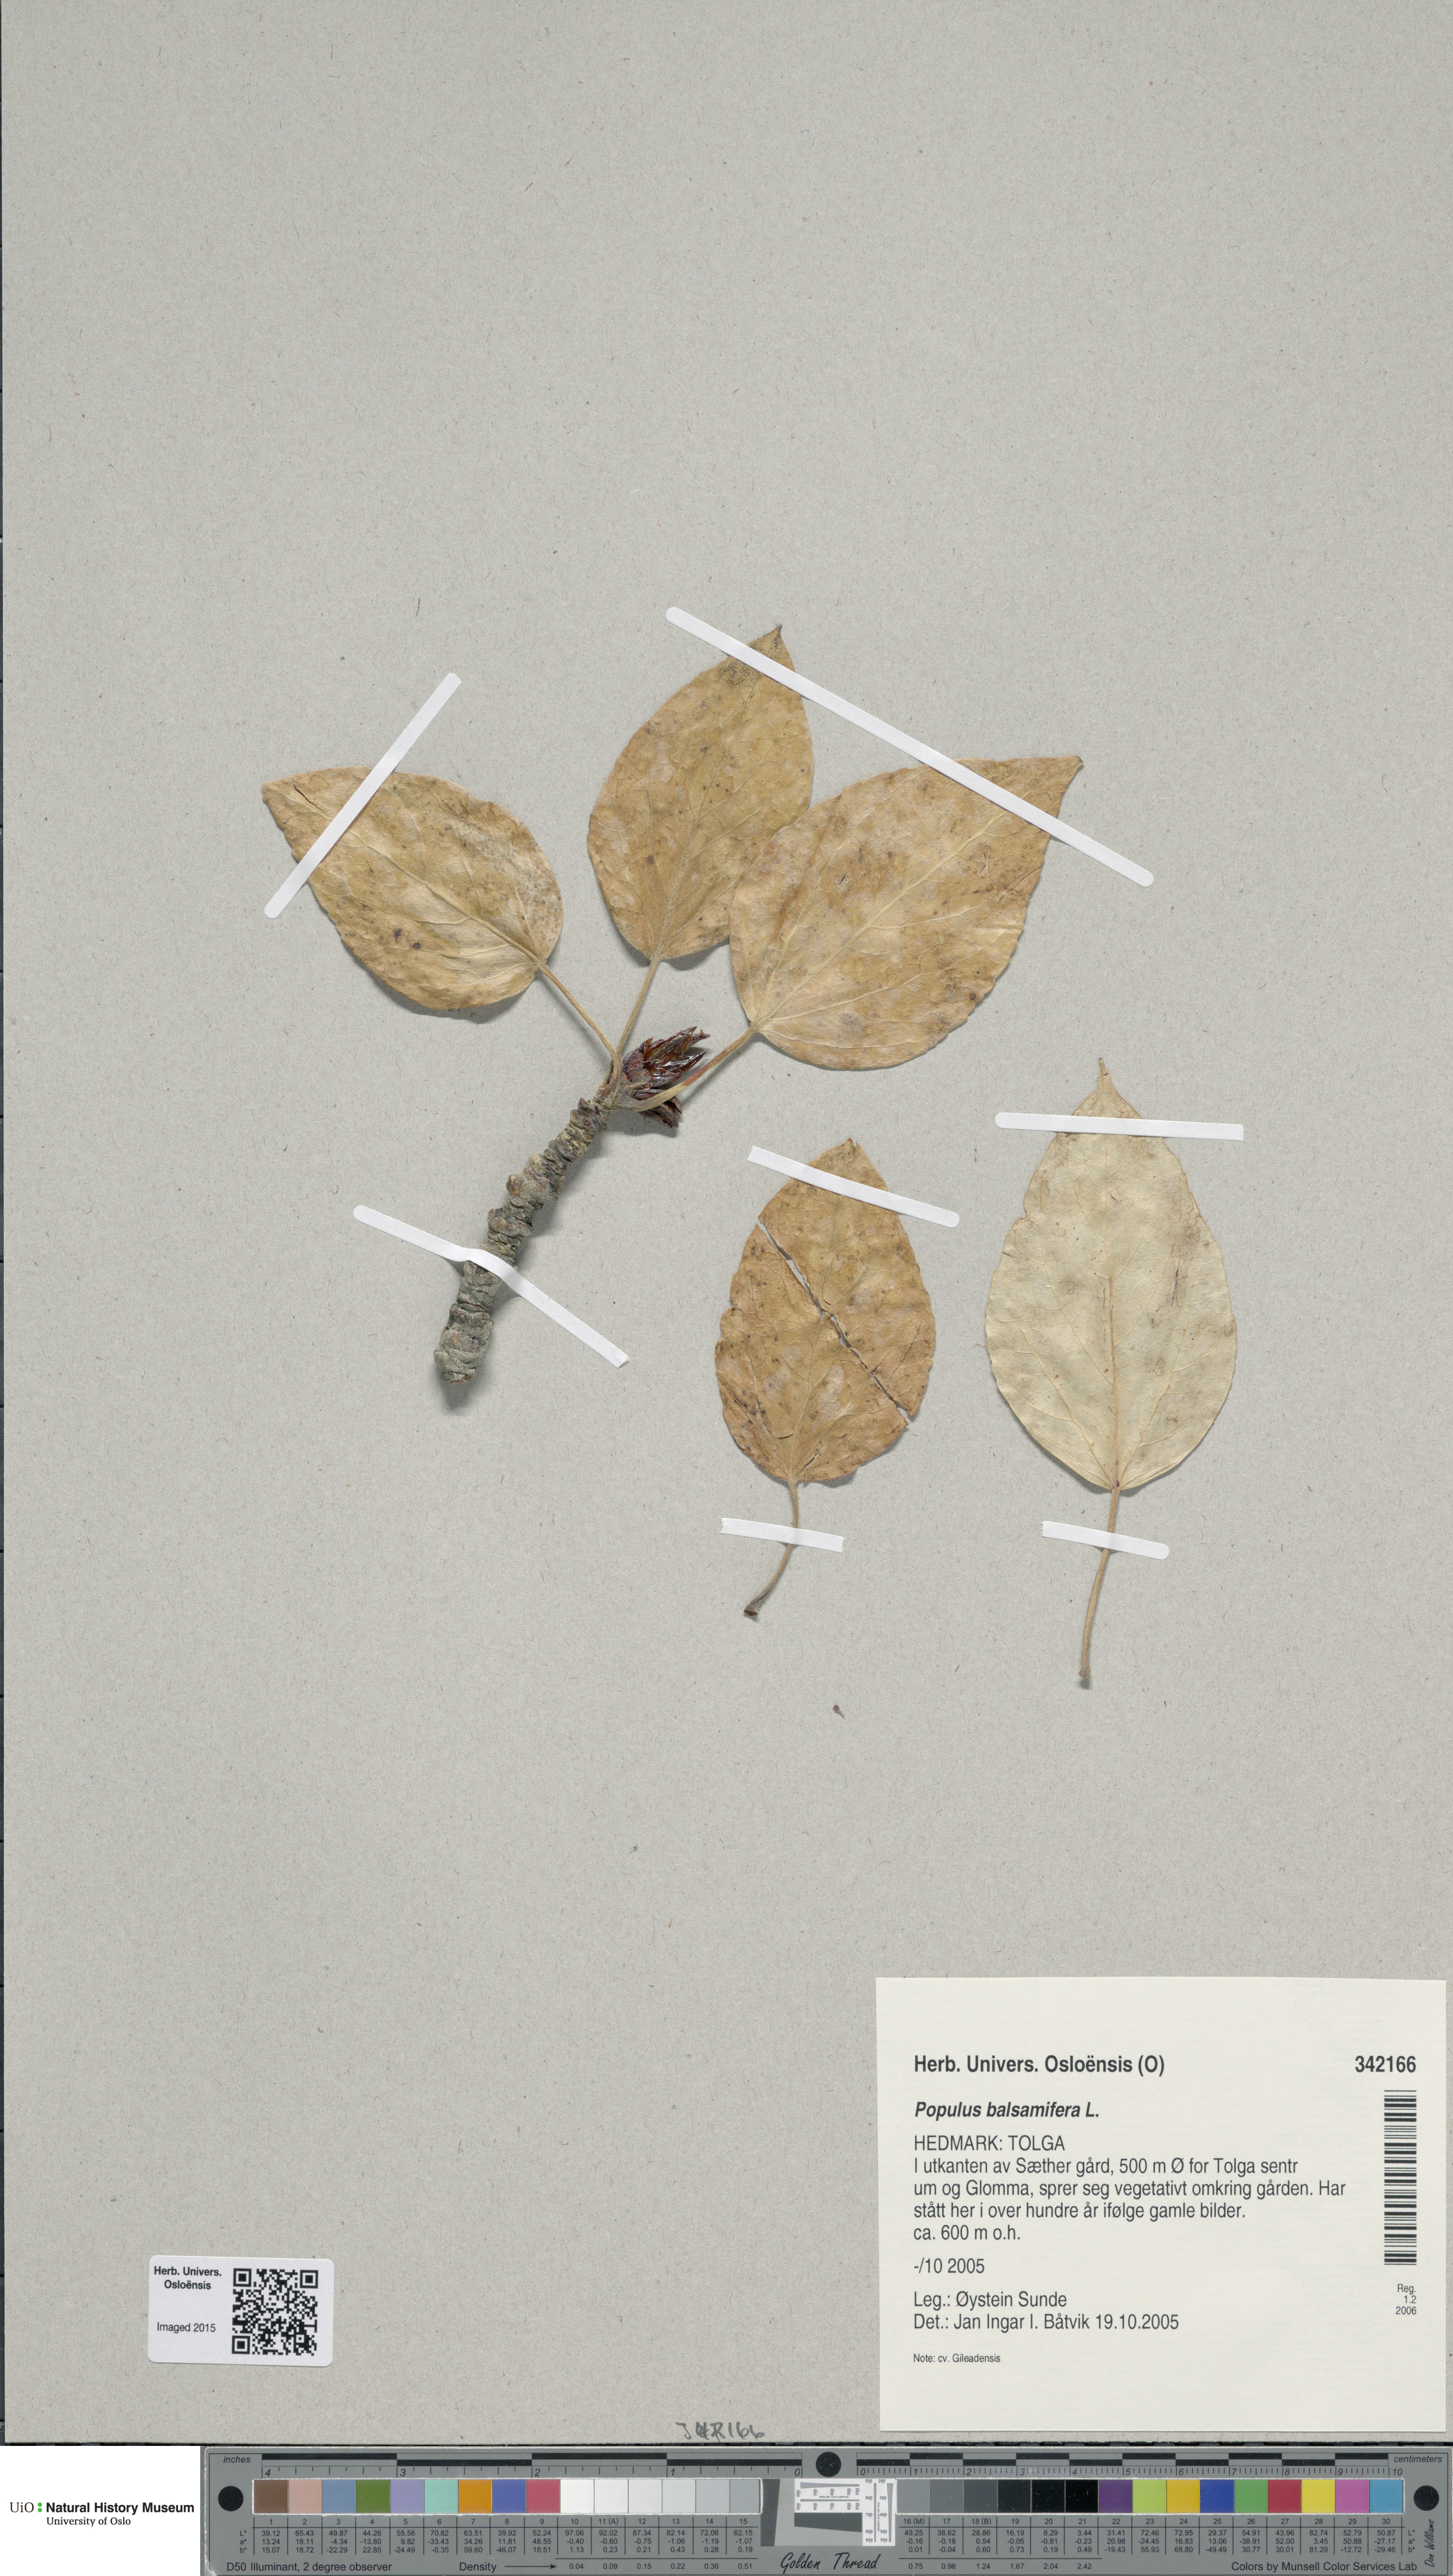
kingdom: Plantae
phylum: Tracheophyta
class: Magnoliopsida
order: Malpighiales
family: Salicaceae
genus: Populus
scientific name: Populus balsamifera
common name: Balsam poplar
